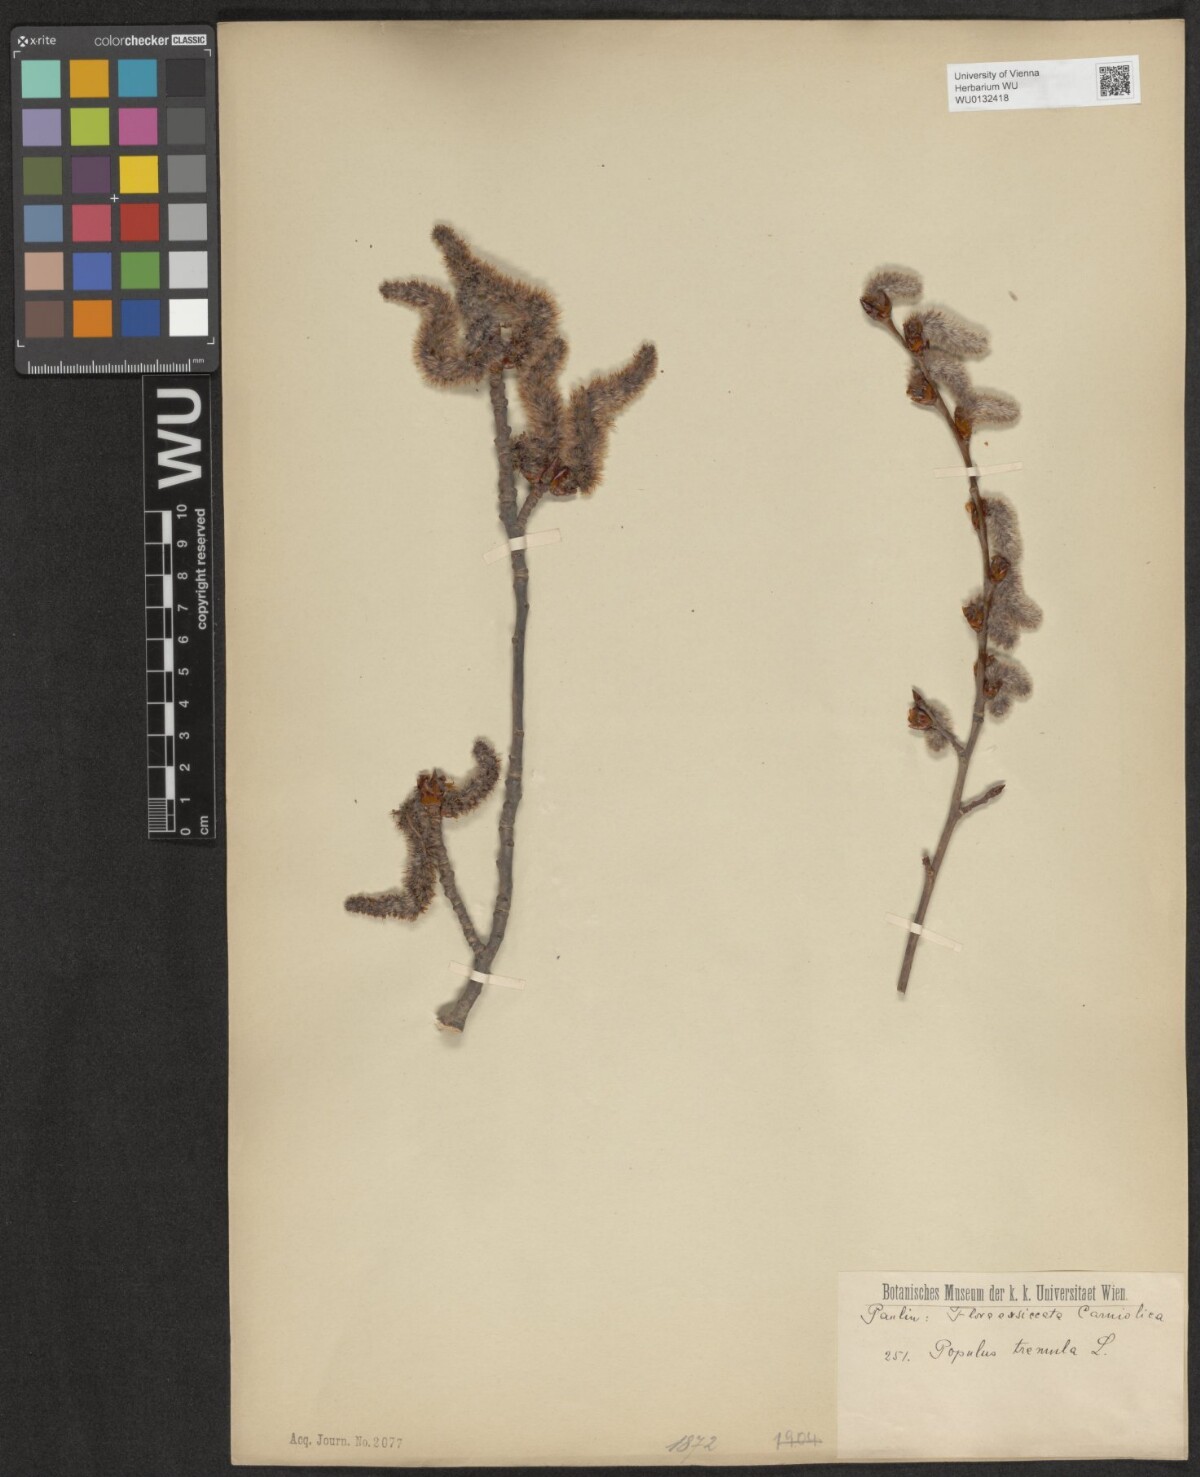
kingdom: Plantae
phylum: Tracheophyta
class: Magnoliopsida
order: Malpighiales
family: Salicaceae
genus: Populus
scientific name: Populus tremula
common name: European aspen
